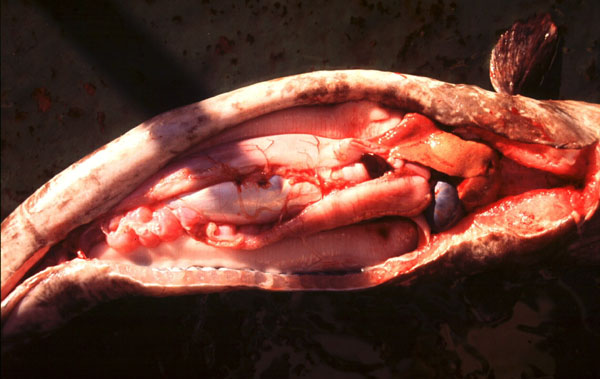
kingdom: Animalia
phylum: Chordata
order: Anguilliformes
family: Congridae
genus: Conger
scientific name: Conger wilsoni
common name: Cape conger
